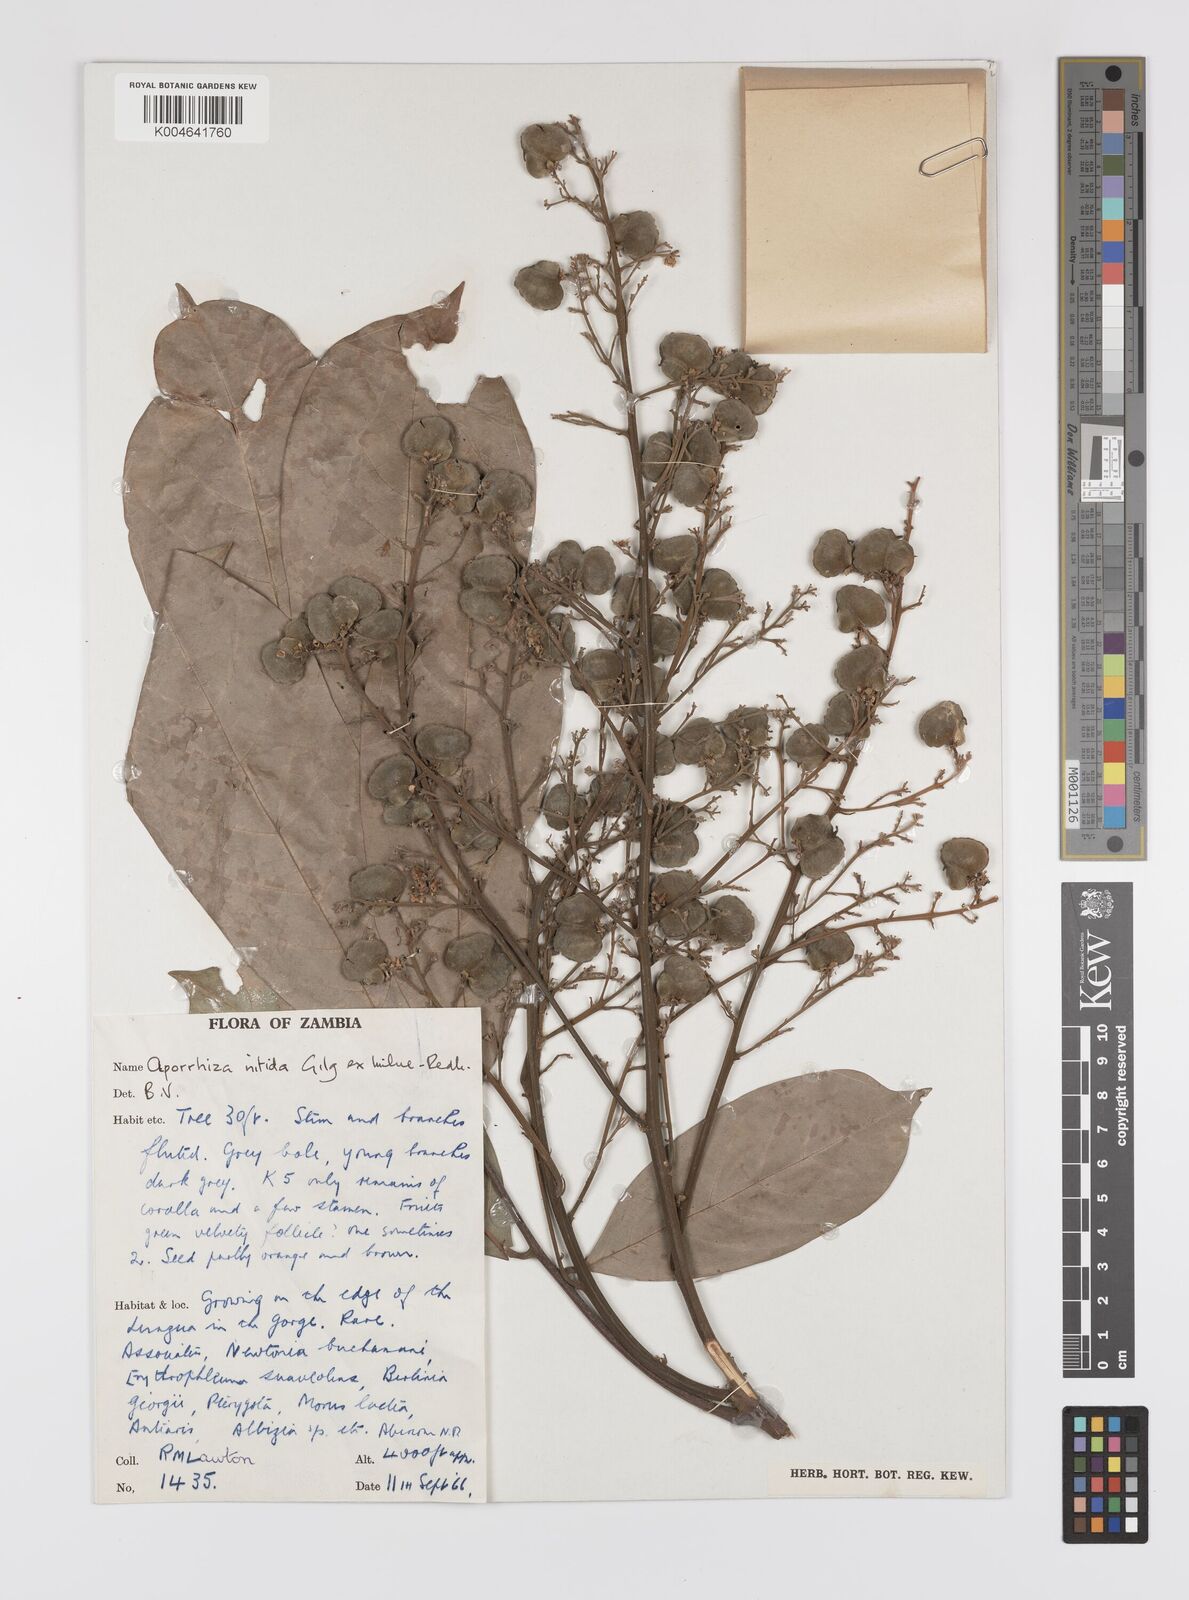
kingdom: Plantae
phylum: Tracheophyta
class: Magnoliopsida
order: Sapindales
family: Sapindaceae
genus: Aporrhiza
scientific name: Aporrhiza paniculata
